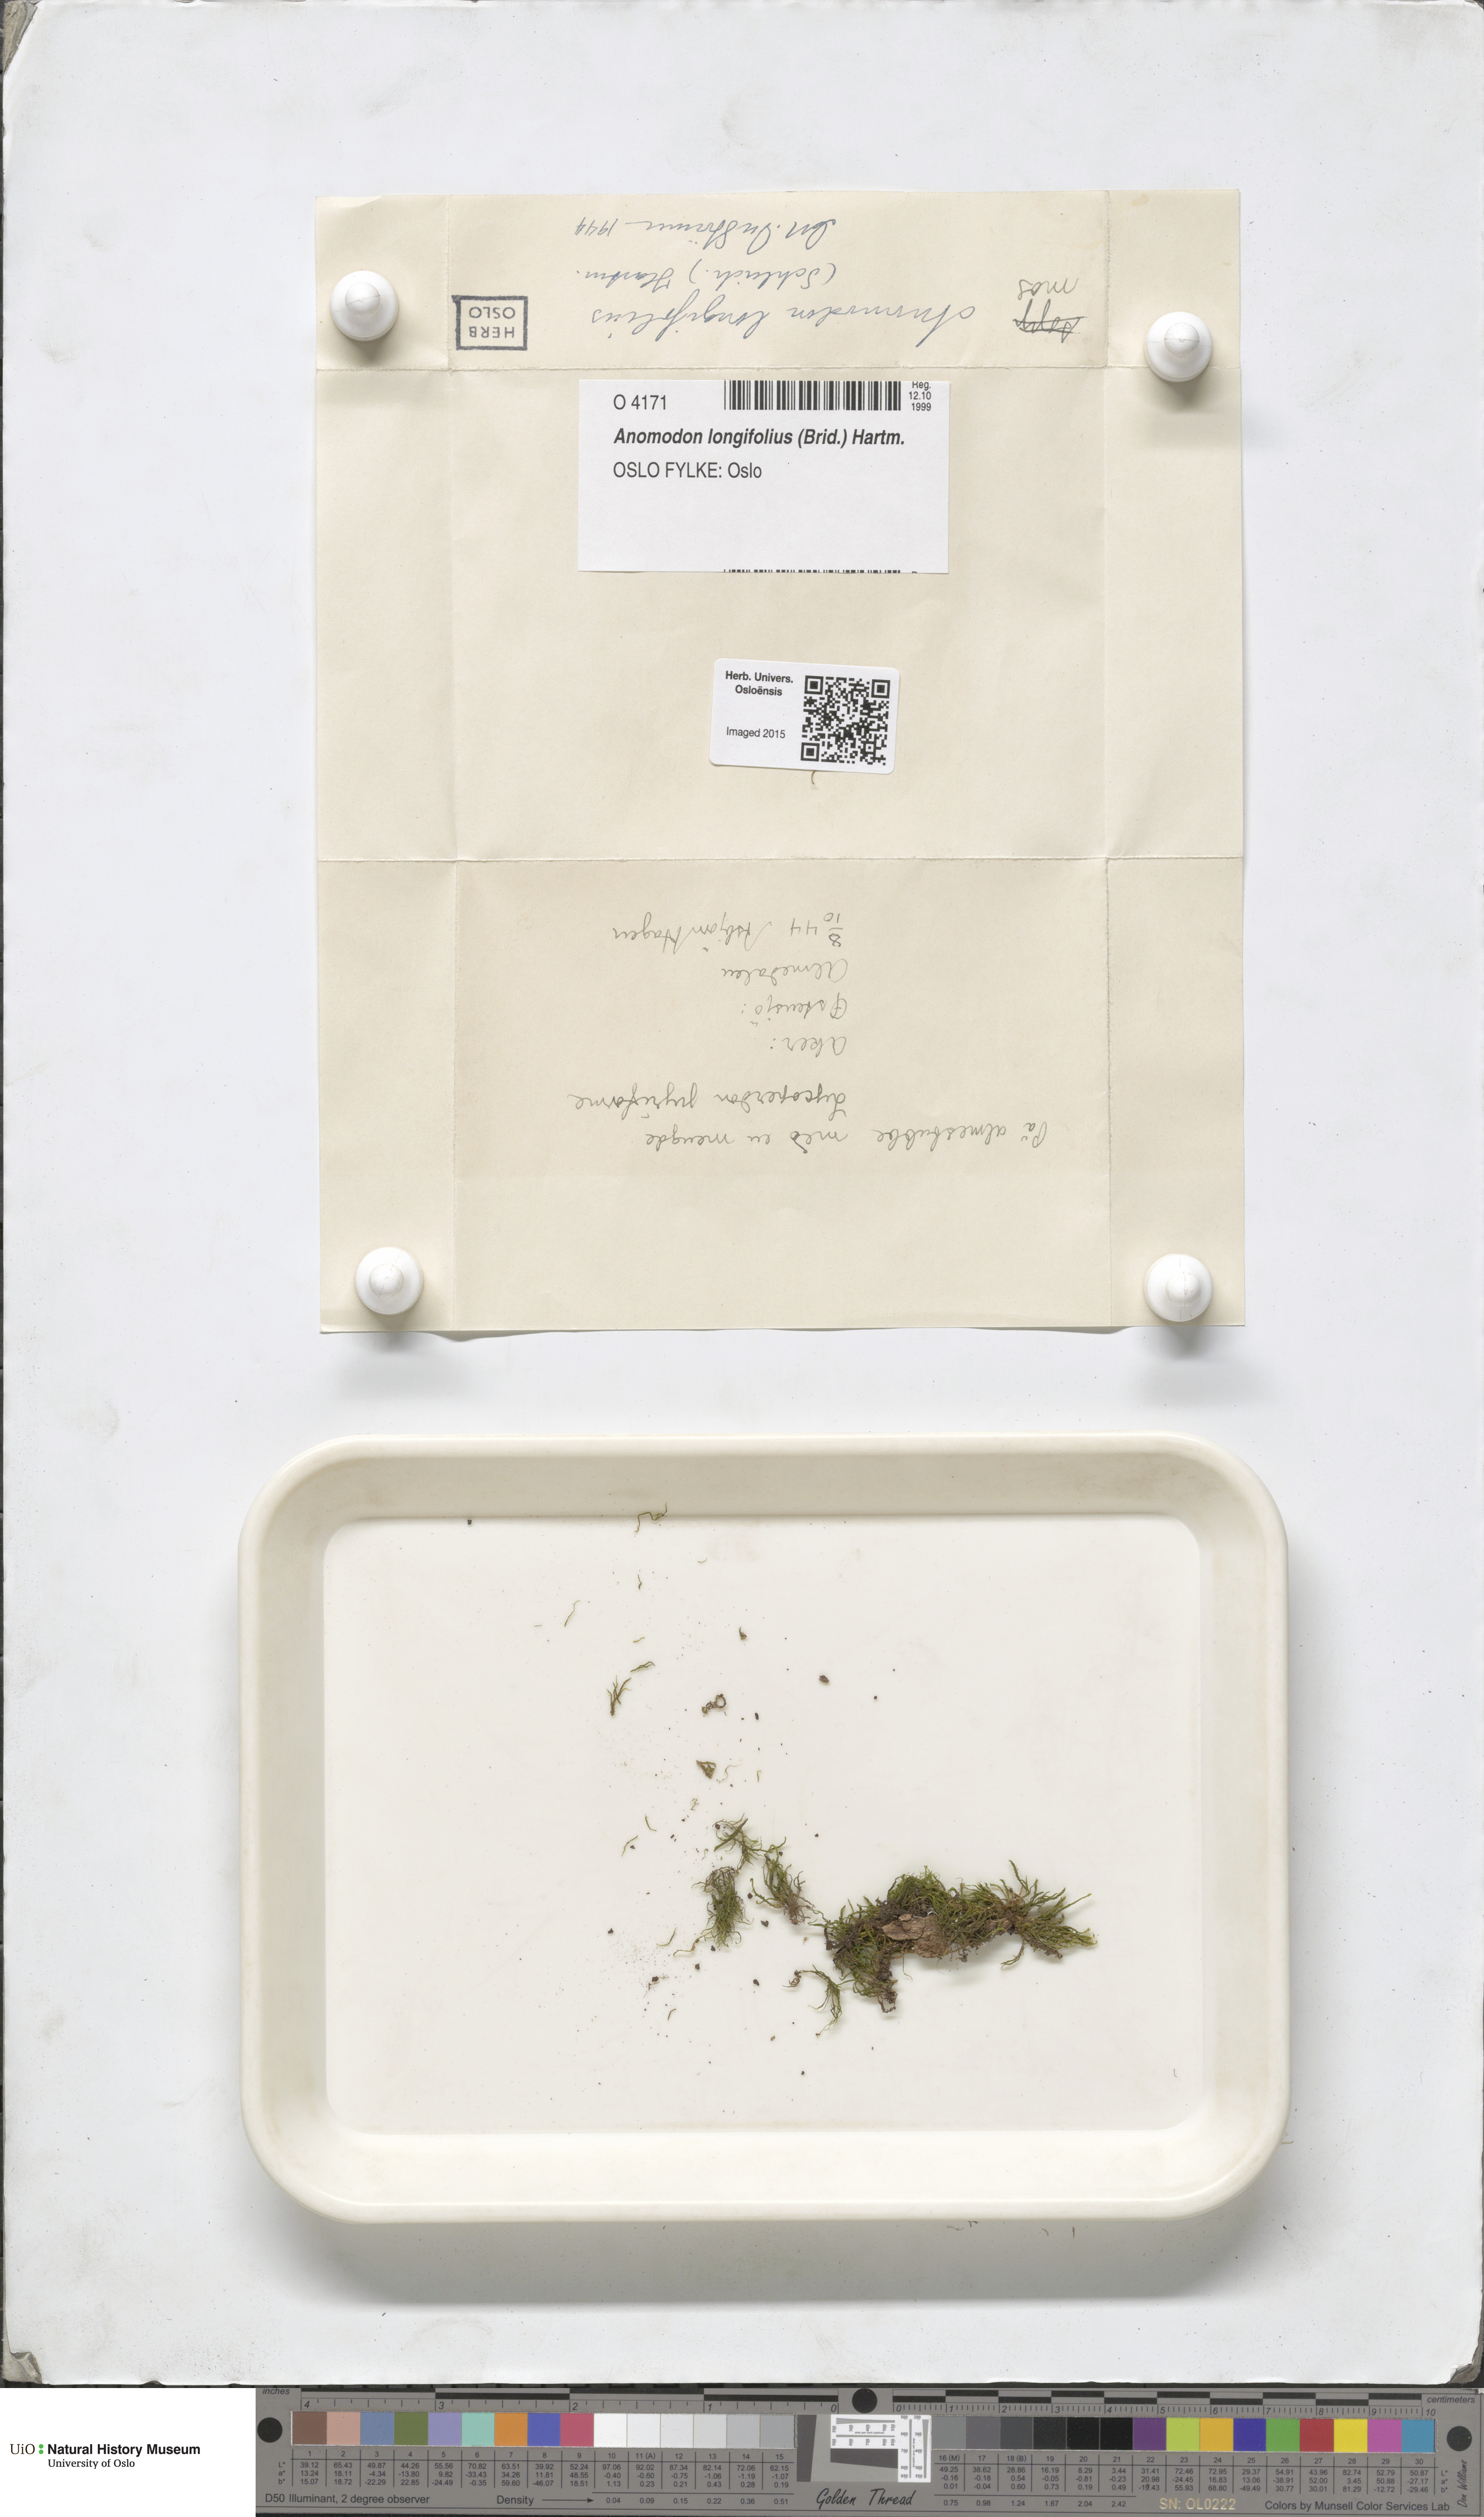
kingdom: Plantae
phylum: Bryophyta
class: Bryopsida
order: Hypnales
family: Anomodontaceae
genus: Anomodontella
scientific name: Anomodontella longifolia
